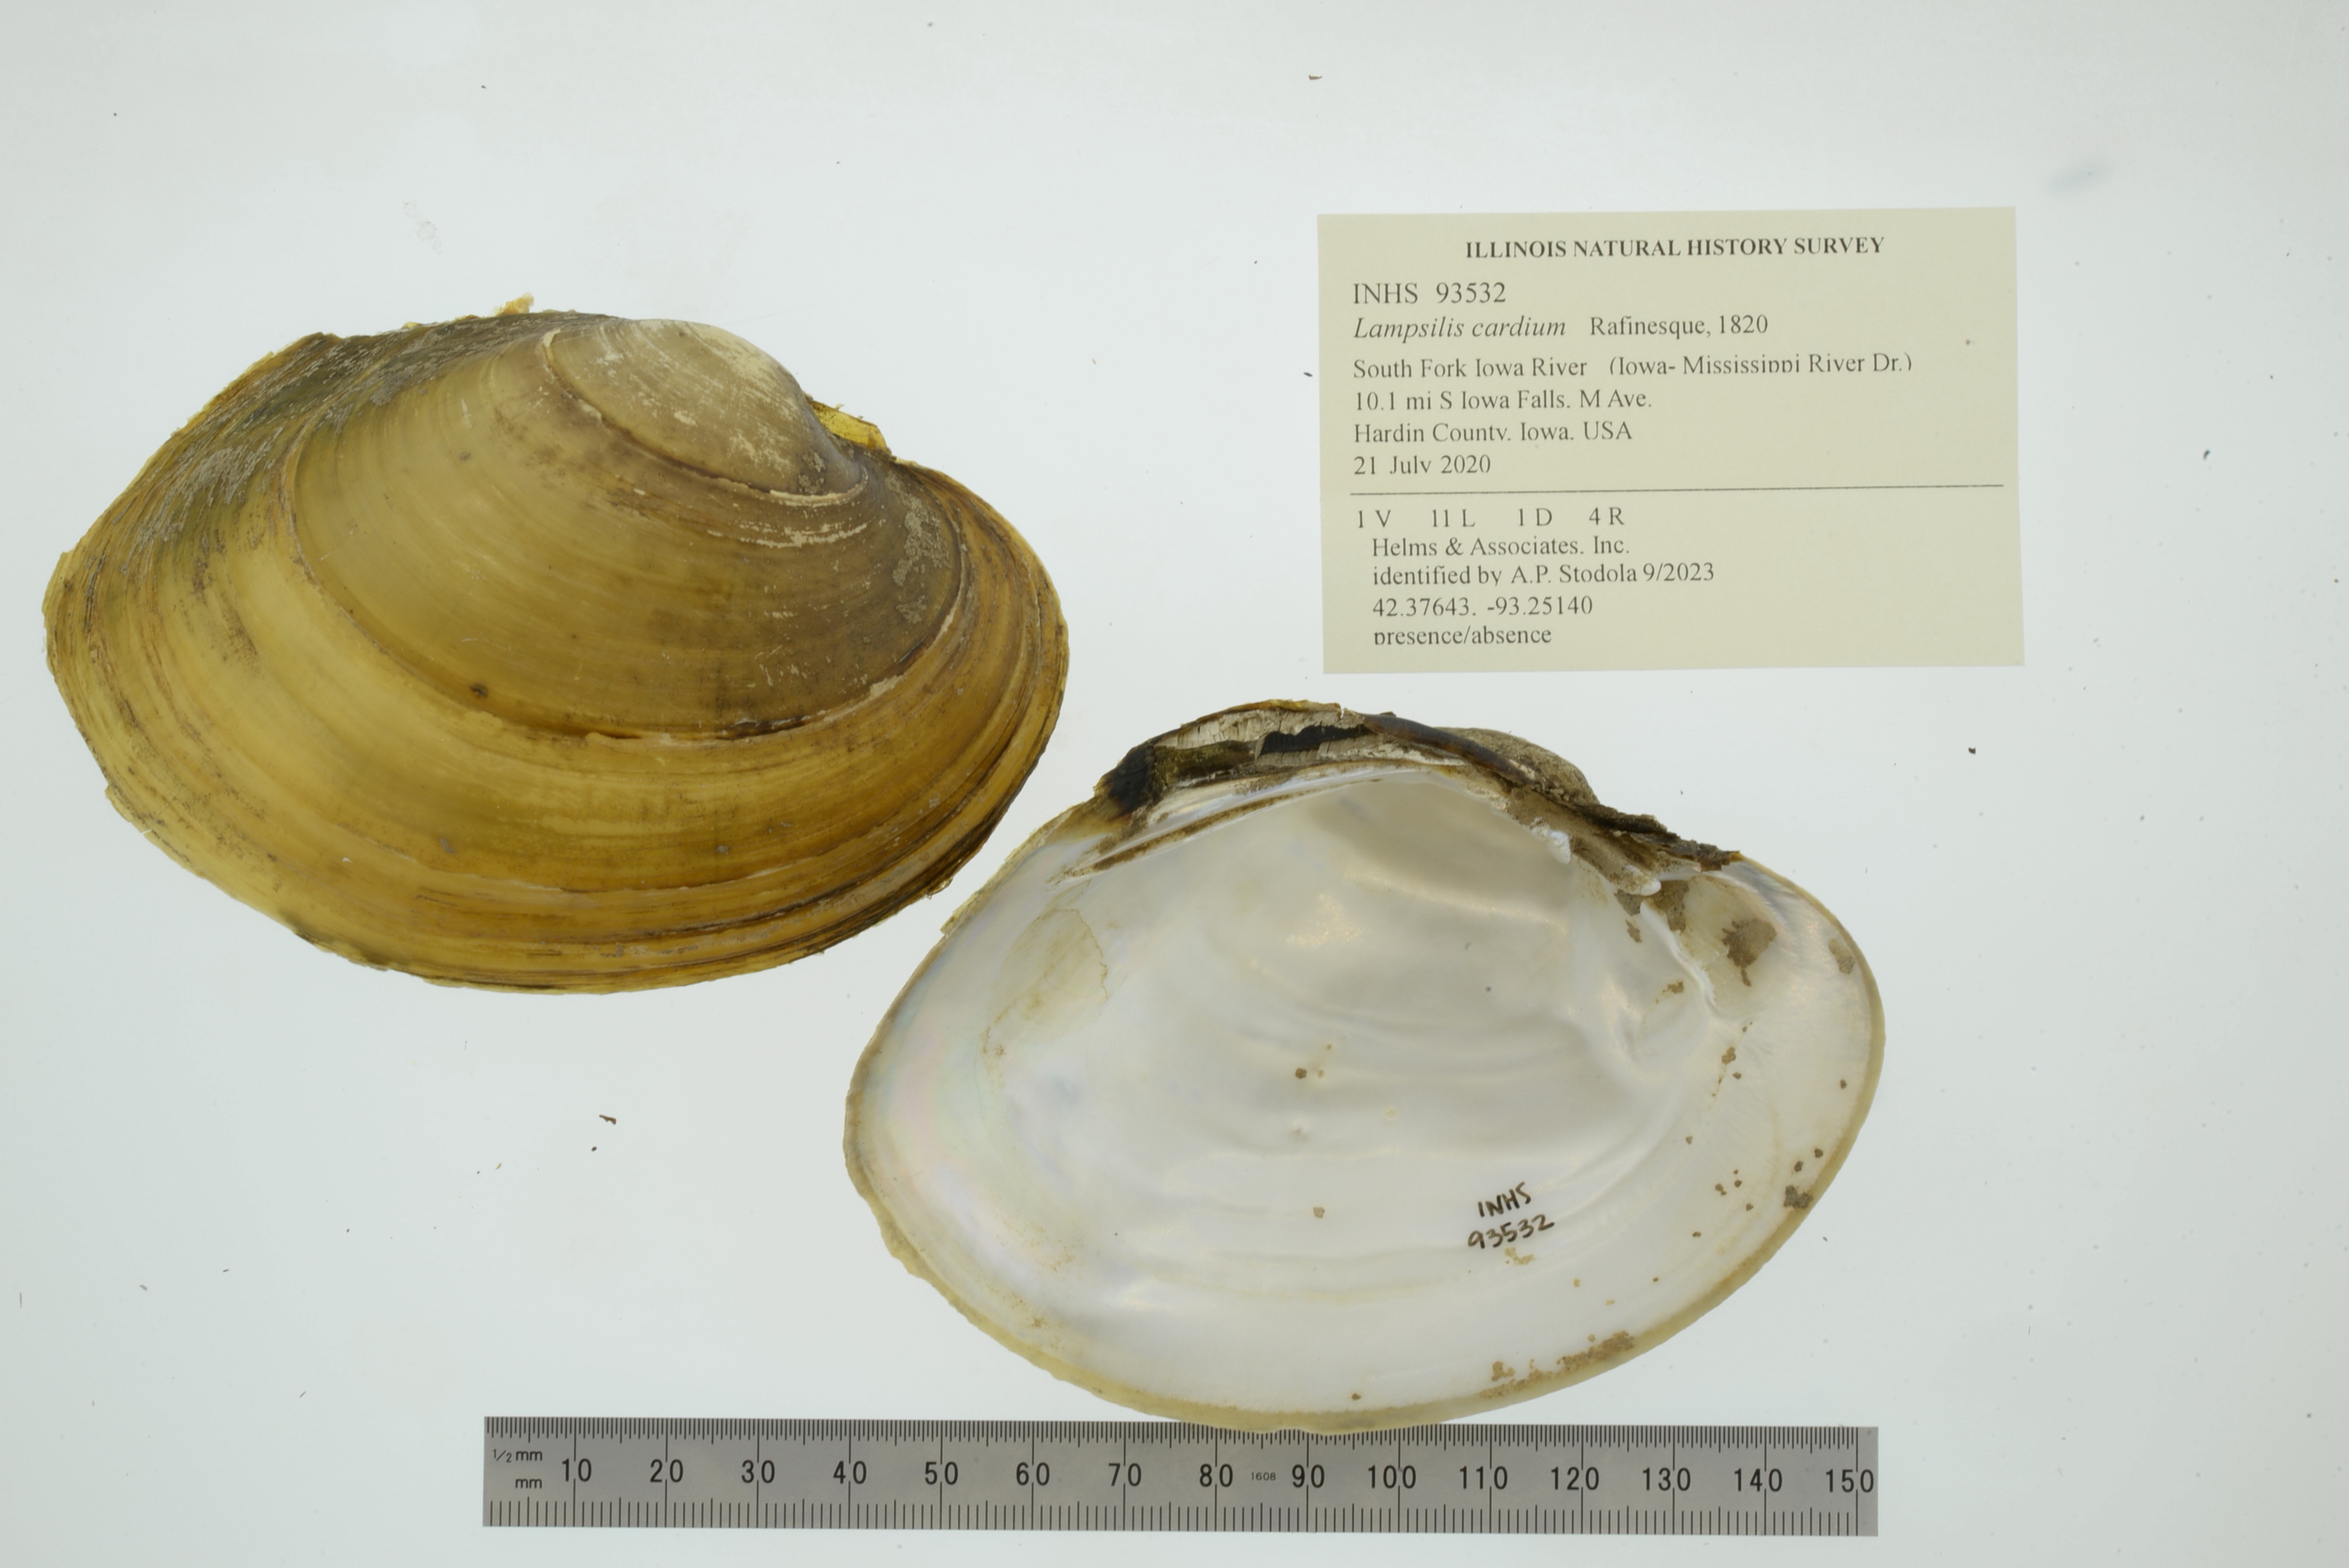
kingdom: Animalia
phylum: Mollusca
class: Bivalvia
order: Unionida
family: Unionidae
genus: Lampsilis
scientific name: Lampsilis cardium
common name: Plain pocketbook
